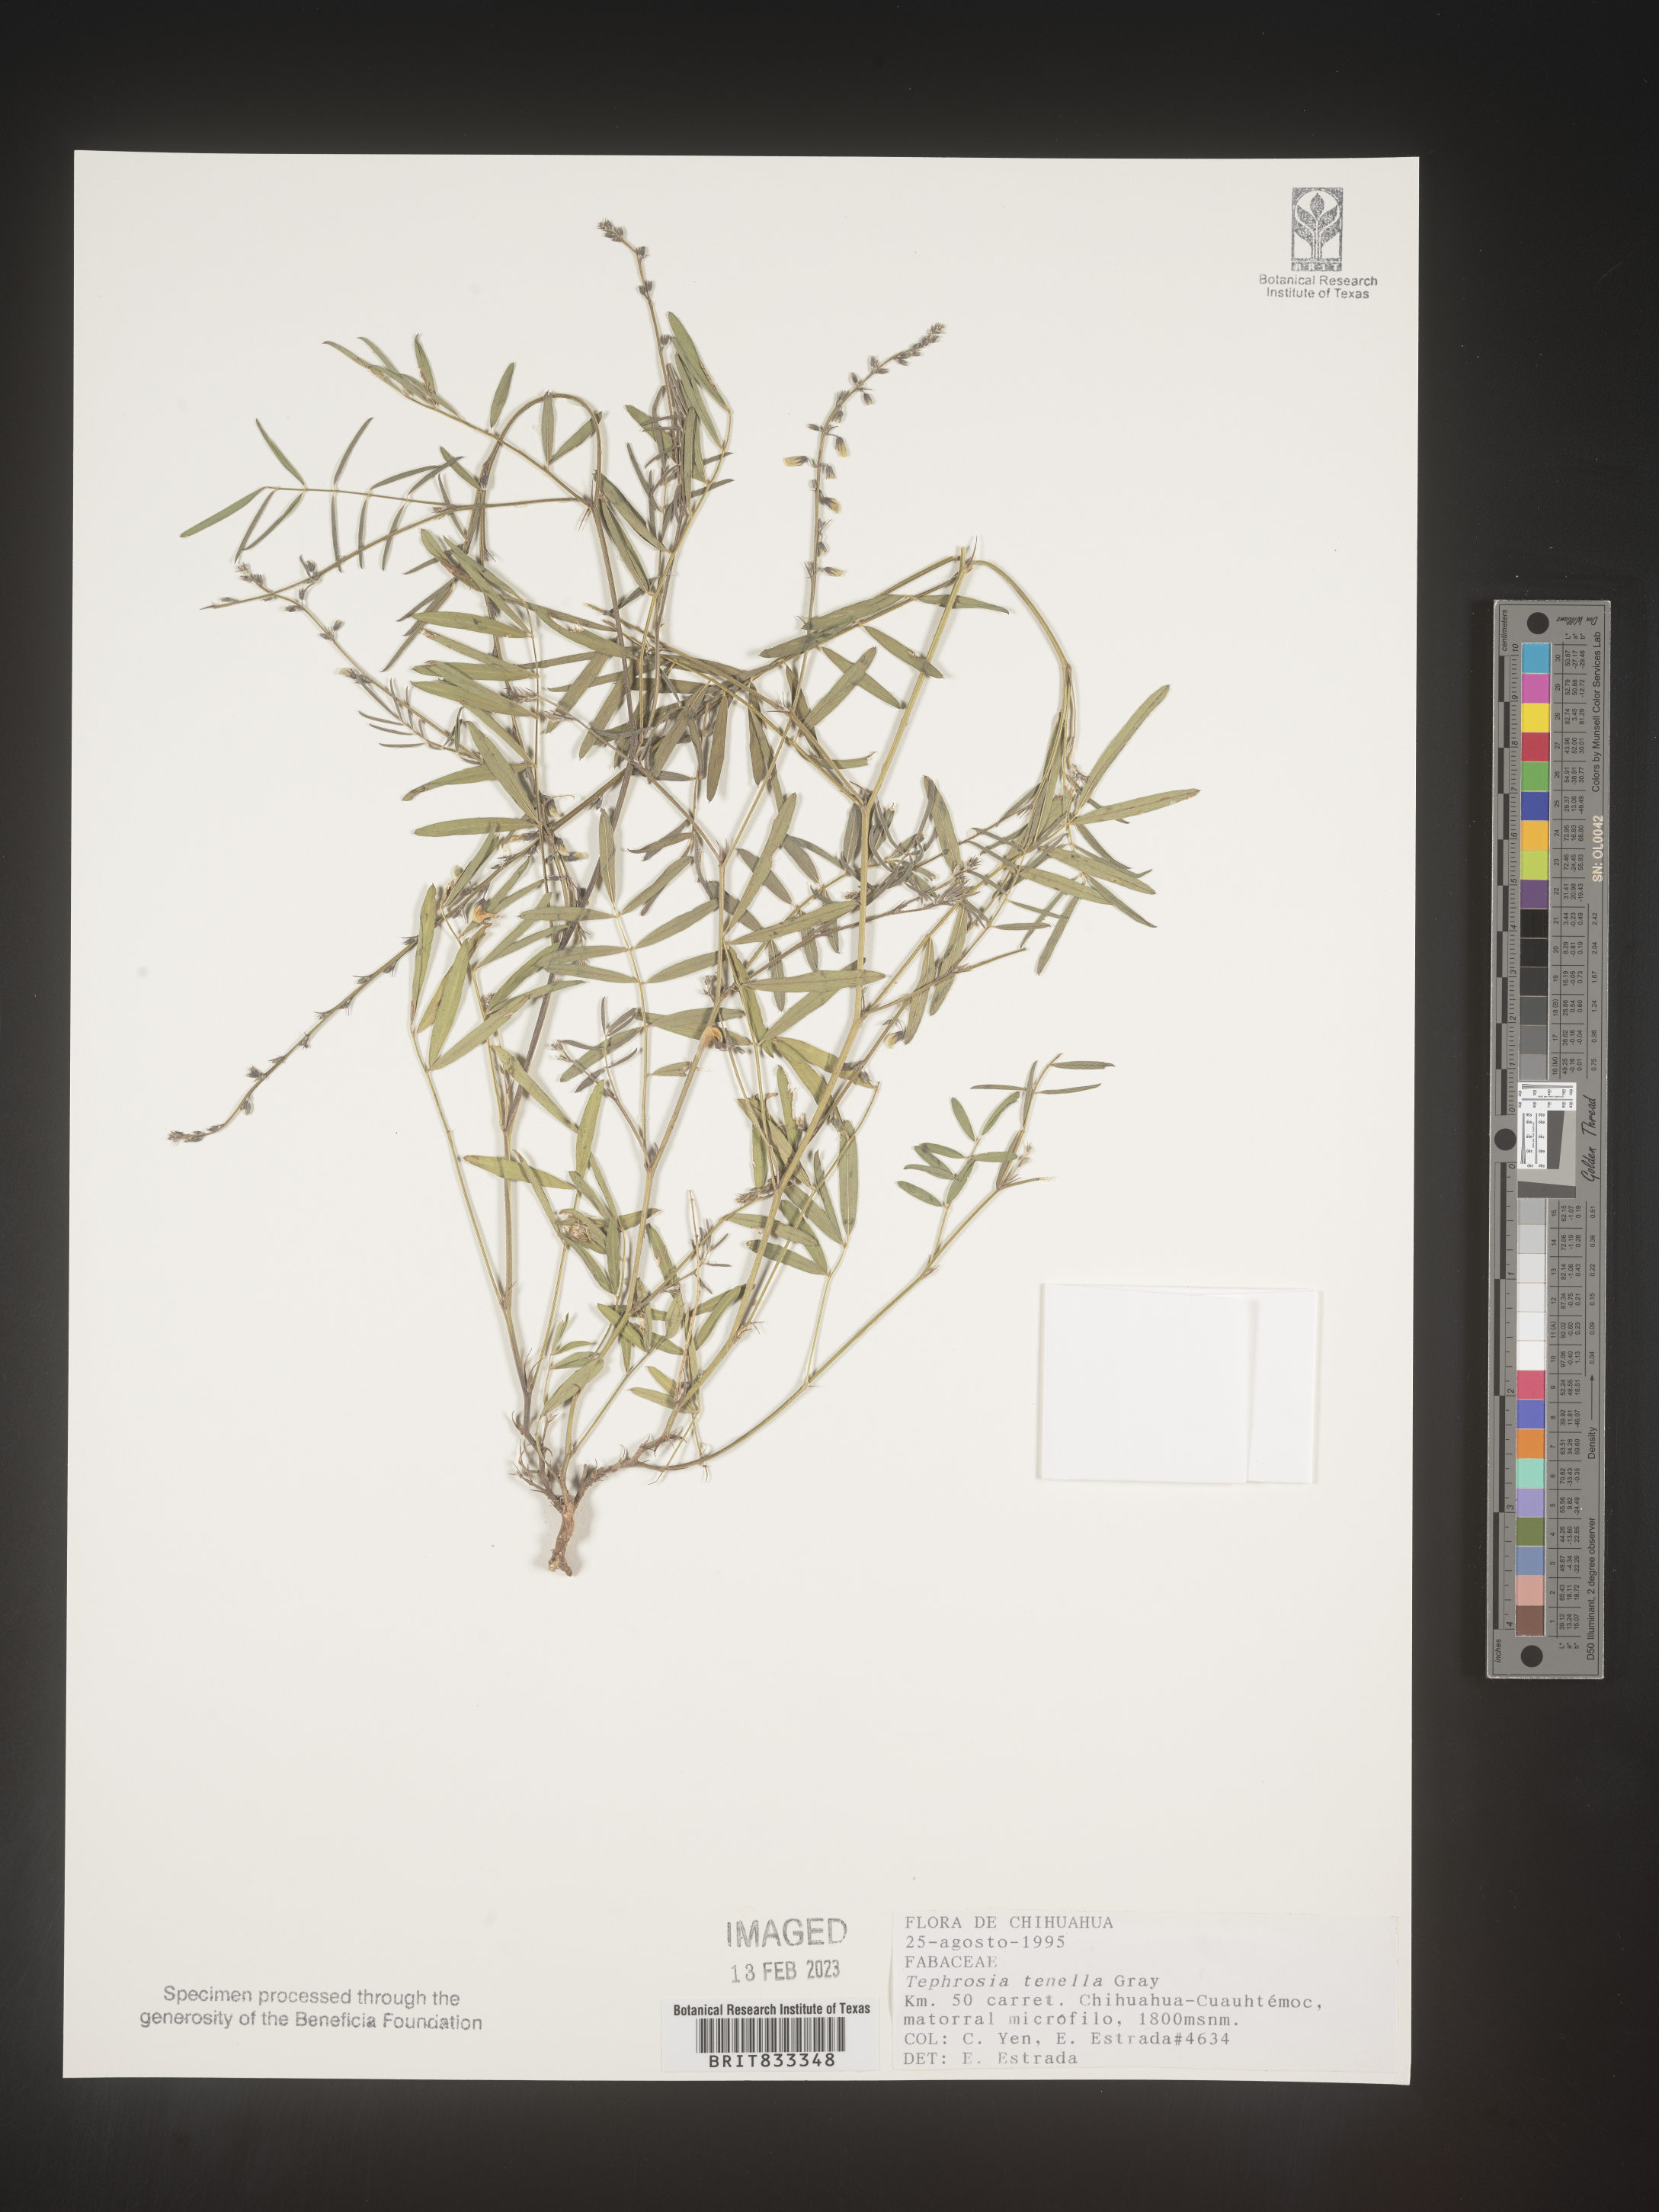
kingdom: Plantae
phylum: Tracheophyta
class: Magnoliopsida
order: Fabales
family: Fabaceae
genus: Tephrosia
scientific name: Tephrosia
